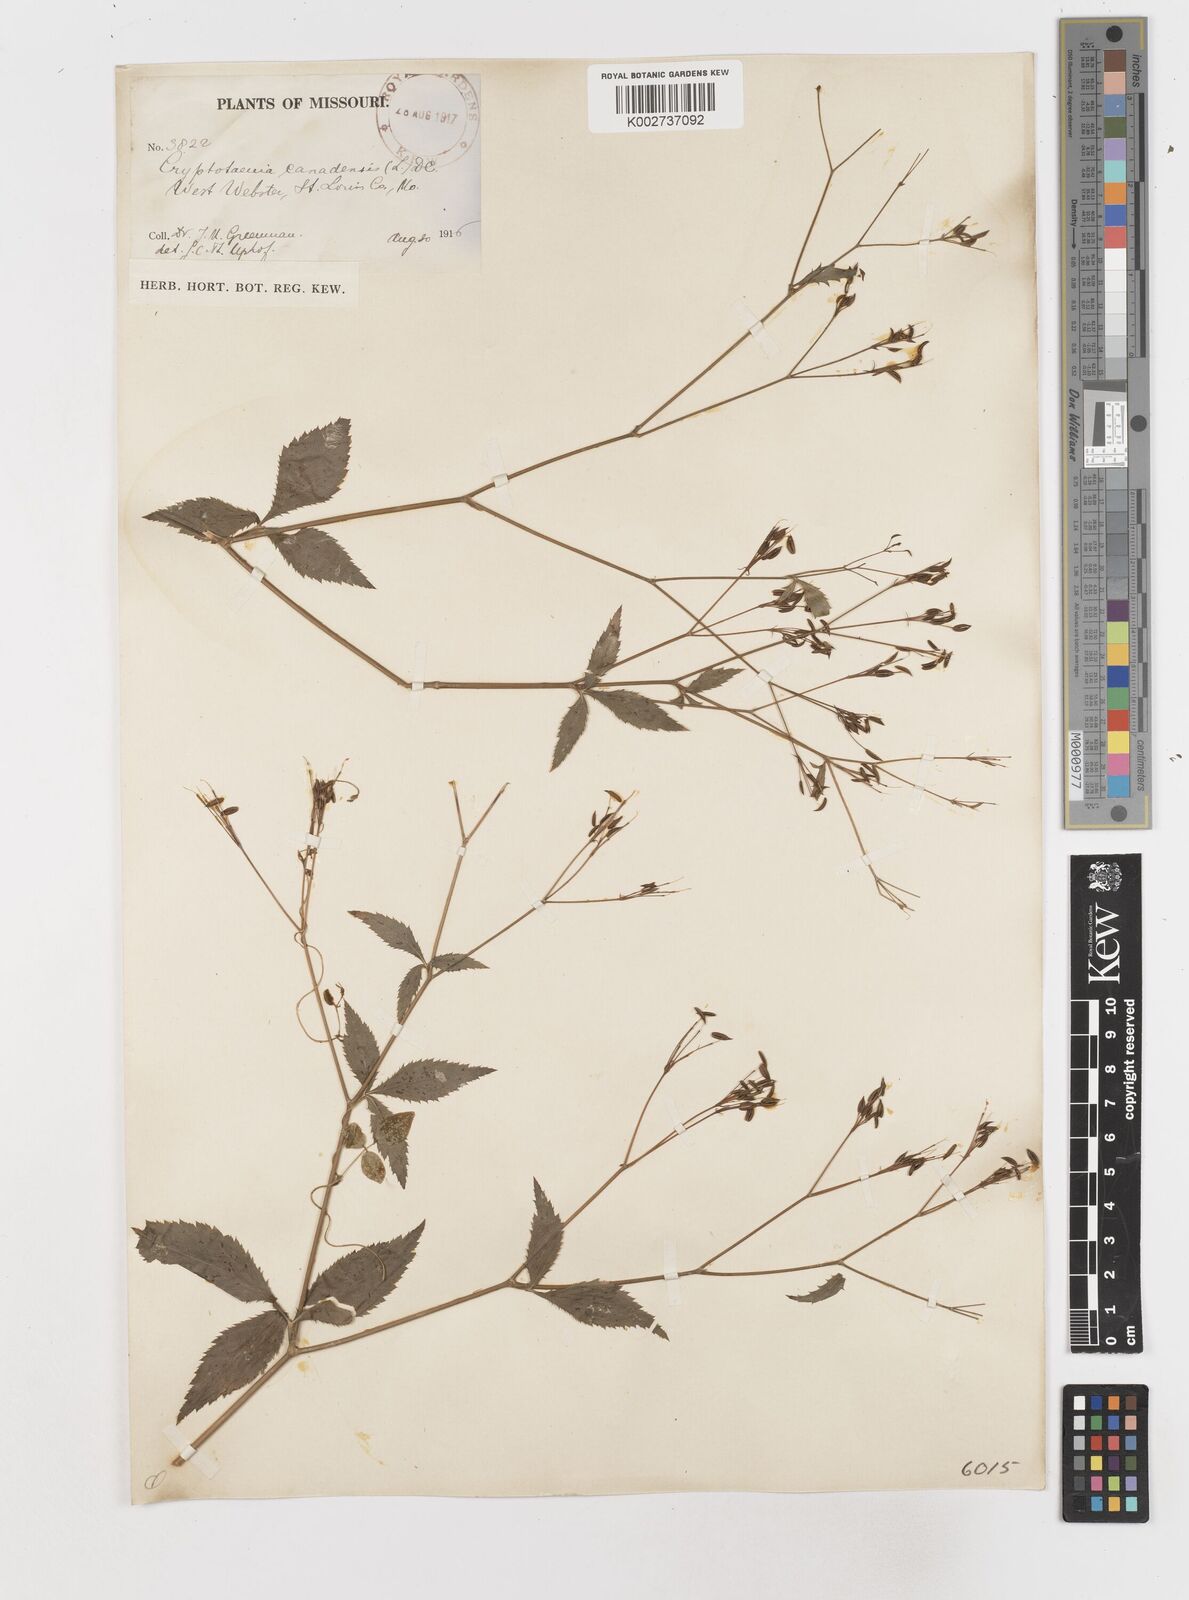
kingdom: Plantae
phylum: Tracheophyta
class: Magnoliopsida
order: Apiales
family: Apiaceae
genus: Cryptotaenia
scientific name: Cryptotaenia canadensis
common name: Honewort
